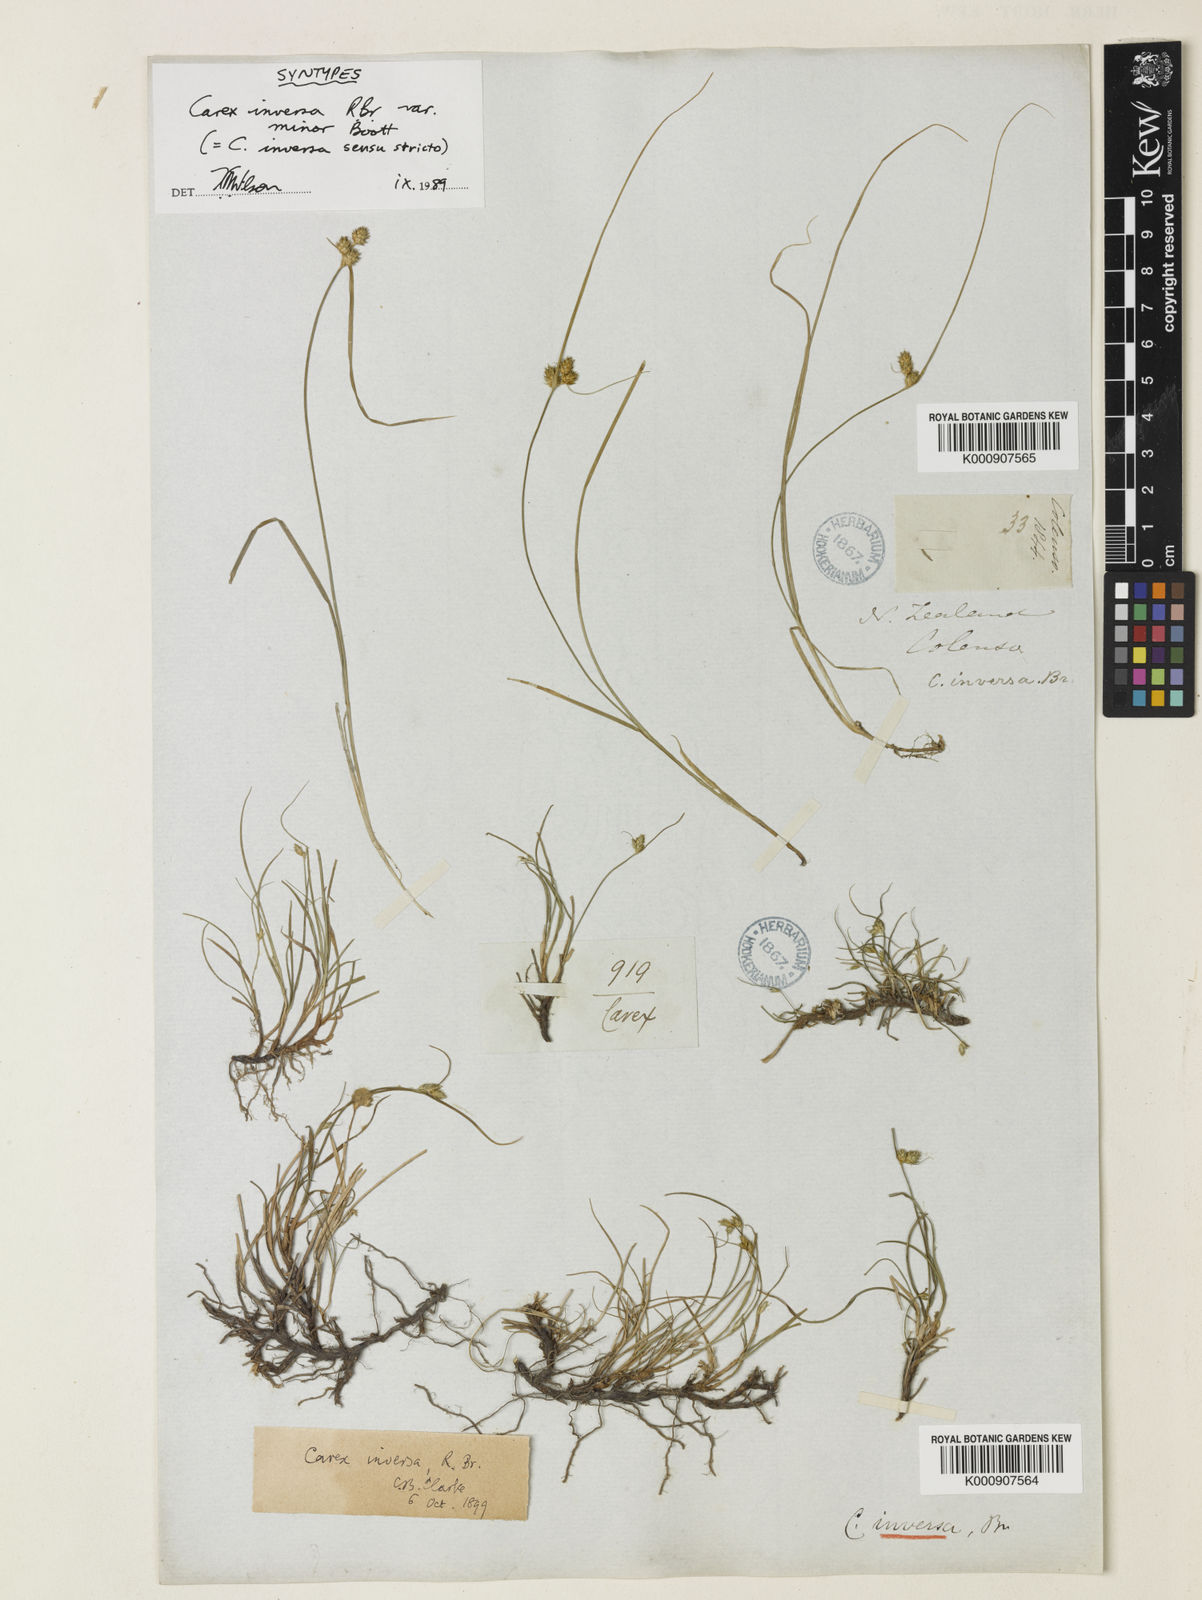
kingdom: Plantae
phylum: Tracheophyta
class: Liliopsida
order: Poales
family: Cyperaceae
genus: Carex
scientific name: Carex inversa
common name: Knob sedge
